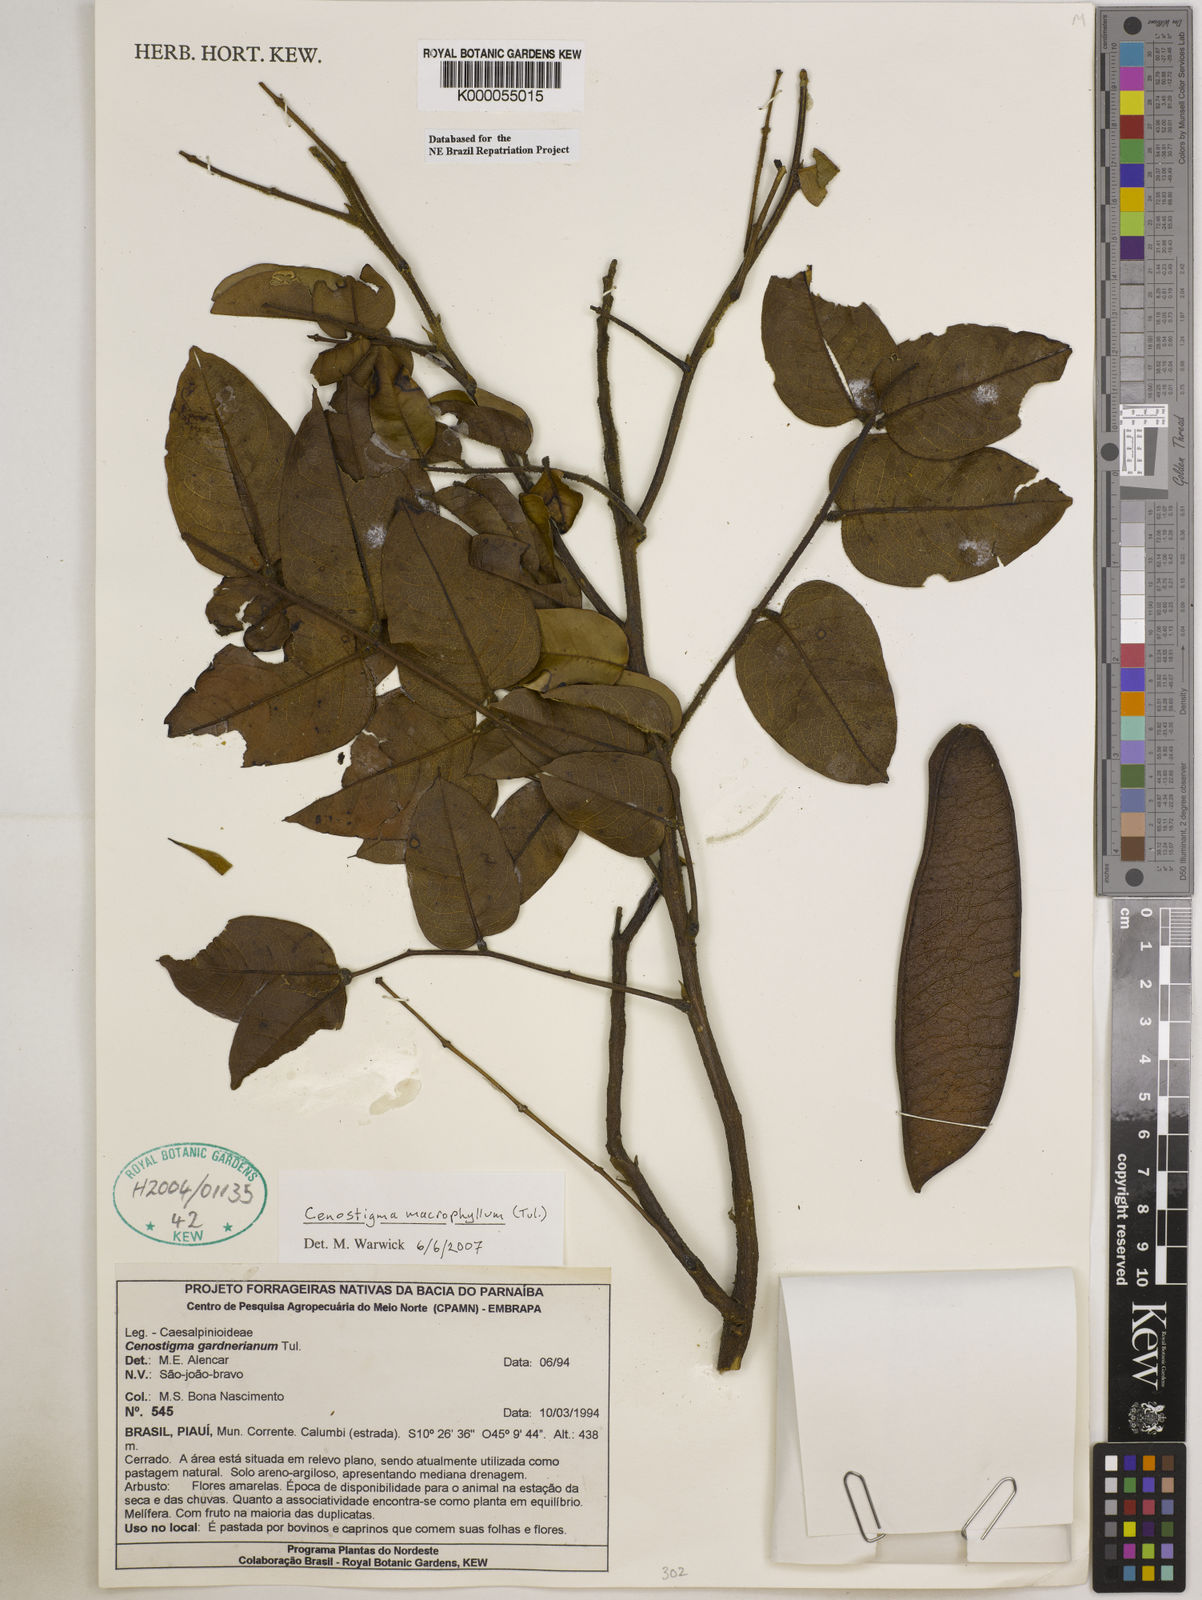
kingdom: Plantae
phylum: Tracheophyta
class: Magnoliopsida
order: Fabales
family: Fabaceae
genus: Cenostigma
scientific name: Cenostigma macrophyllum
